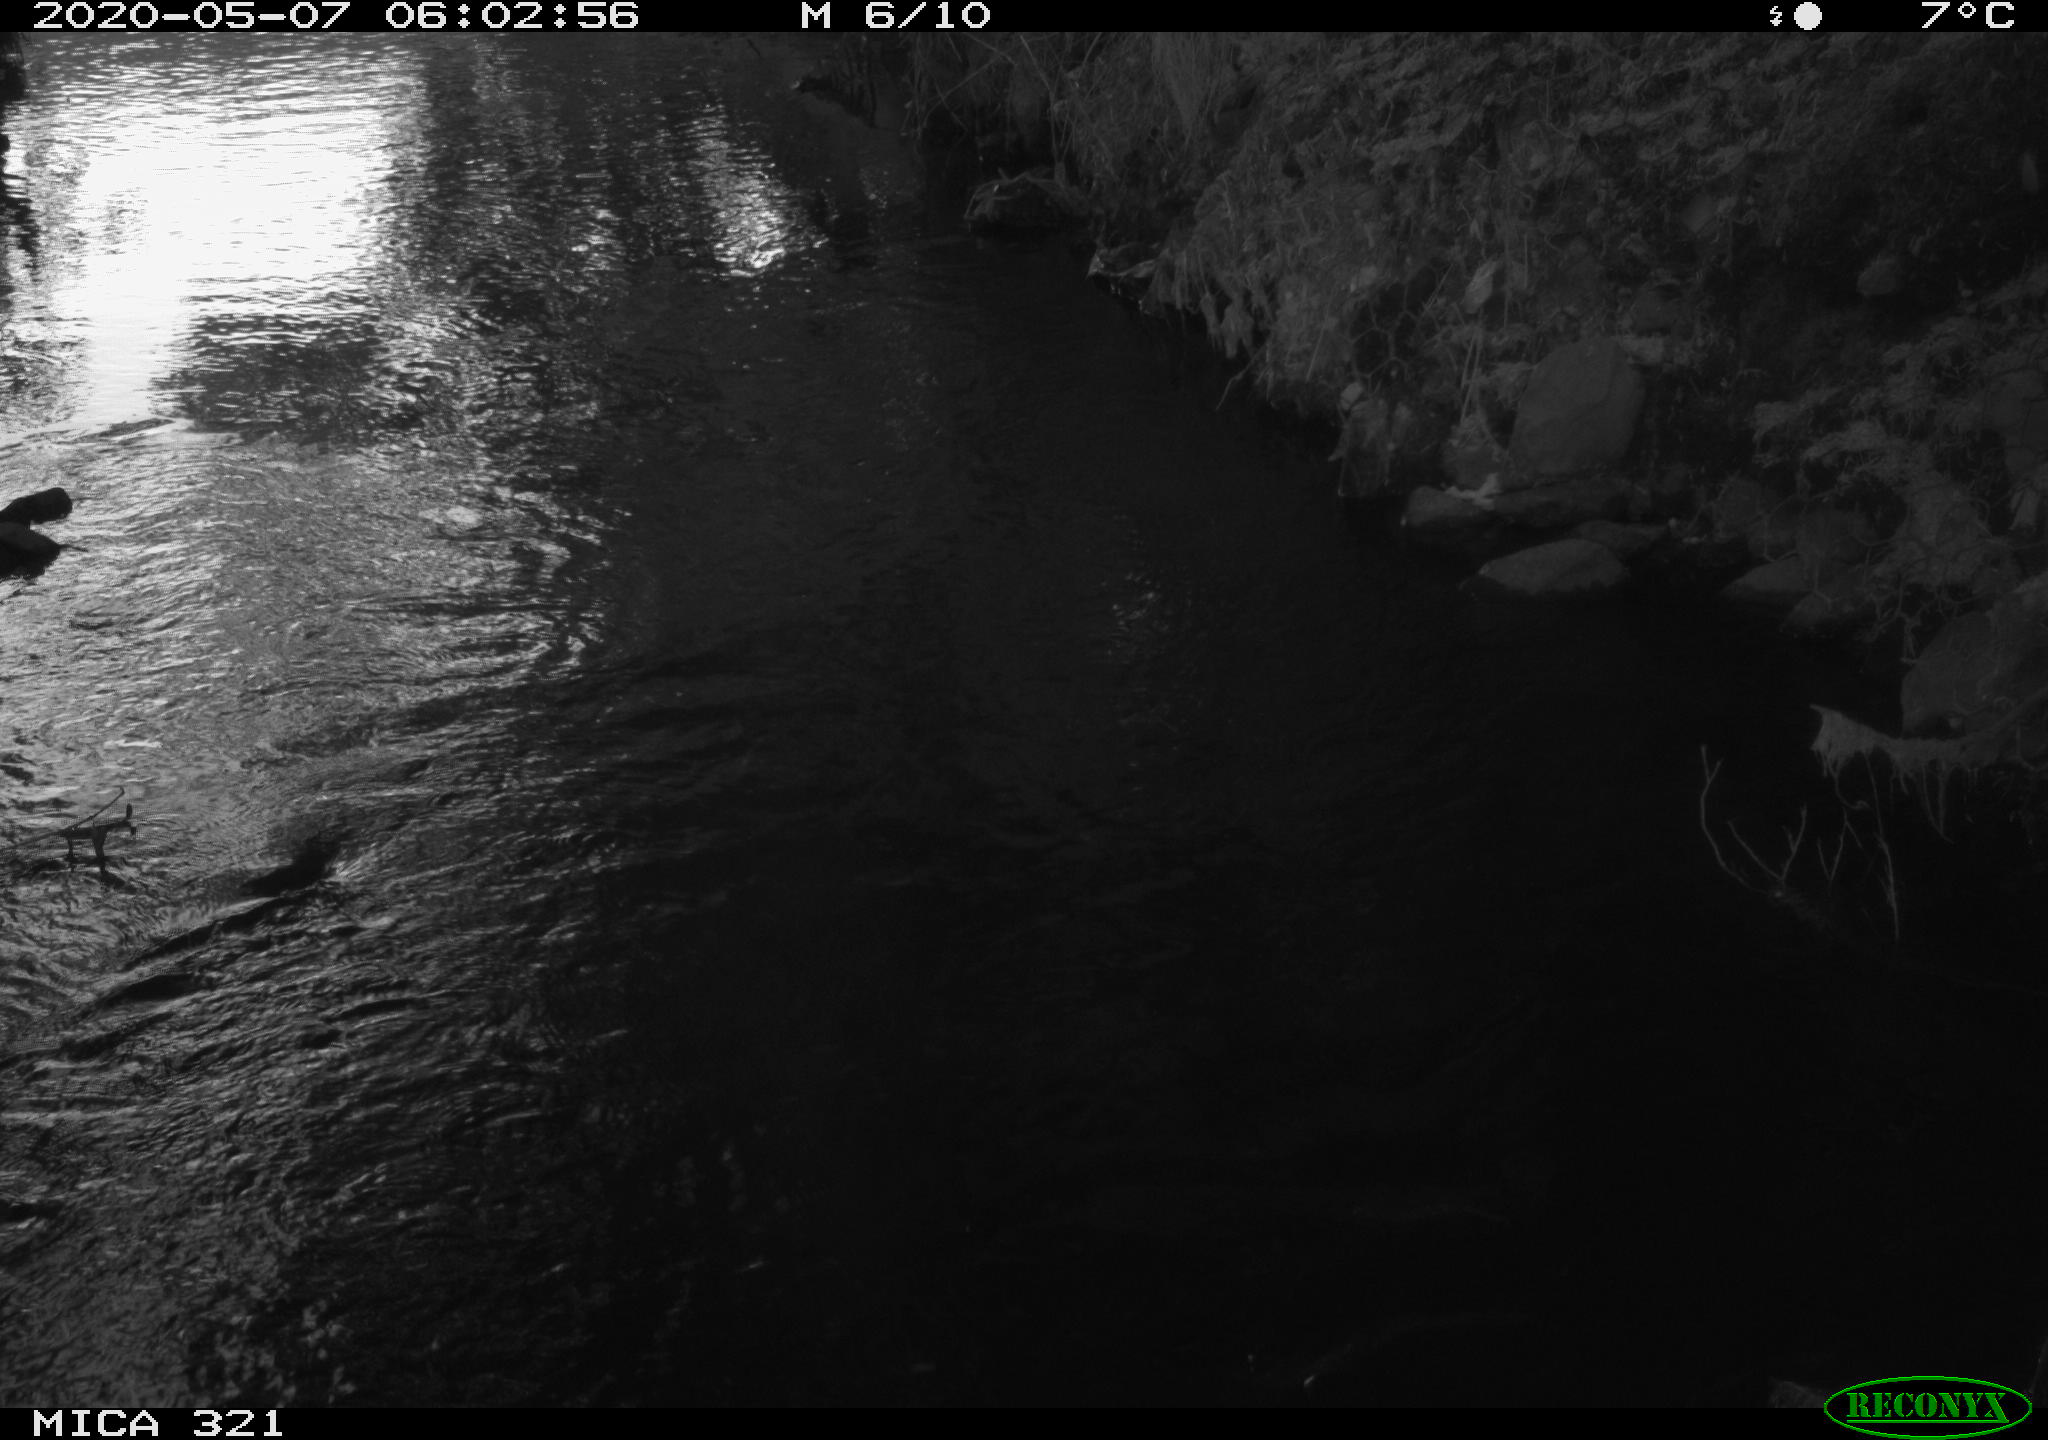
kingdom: Animalia
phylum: Chordata
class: Aves
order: Anseriformes
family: Anatidae
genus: Anas
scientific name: Anas platyrhynchos
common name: Mallard
